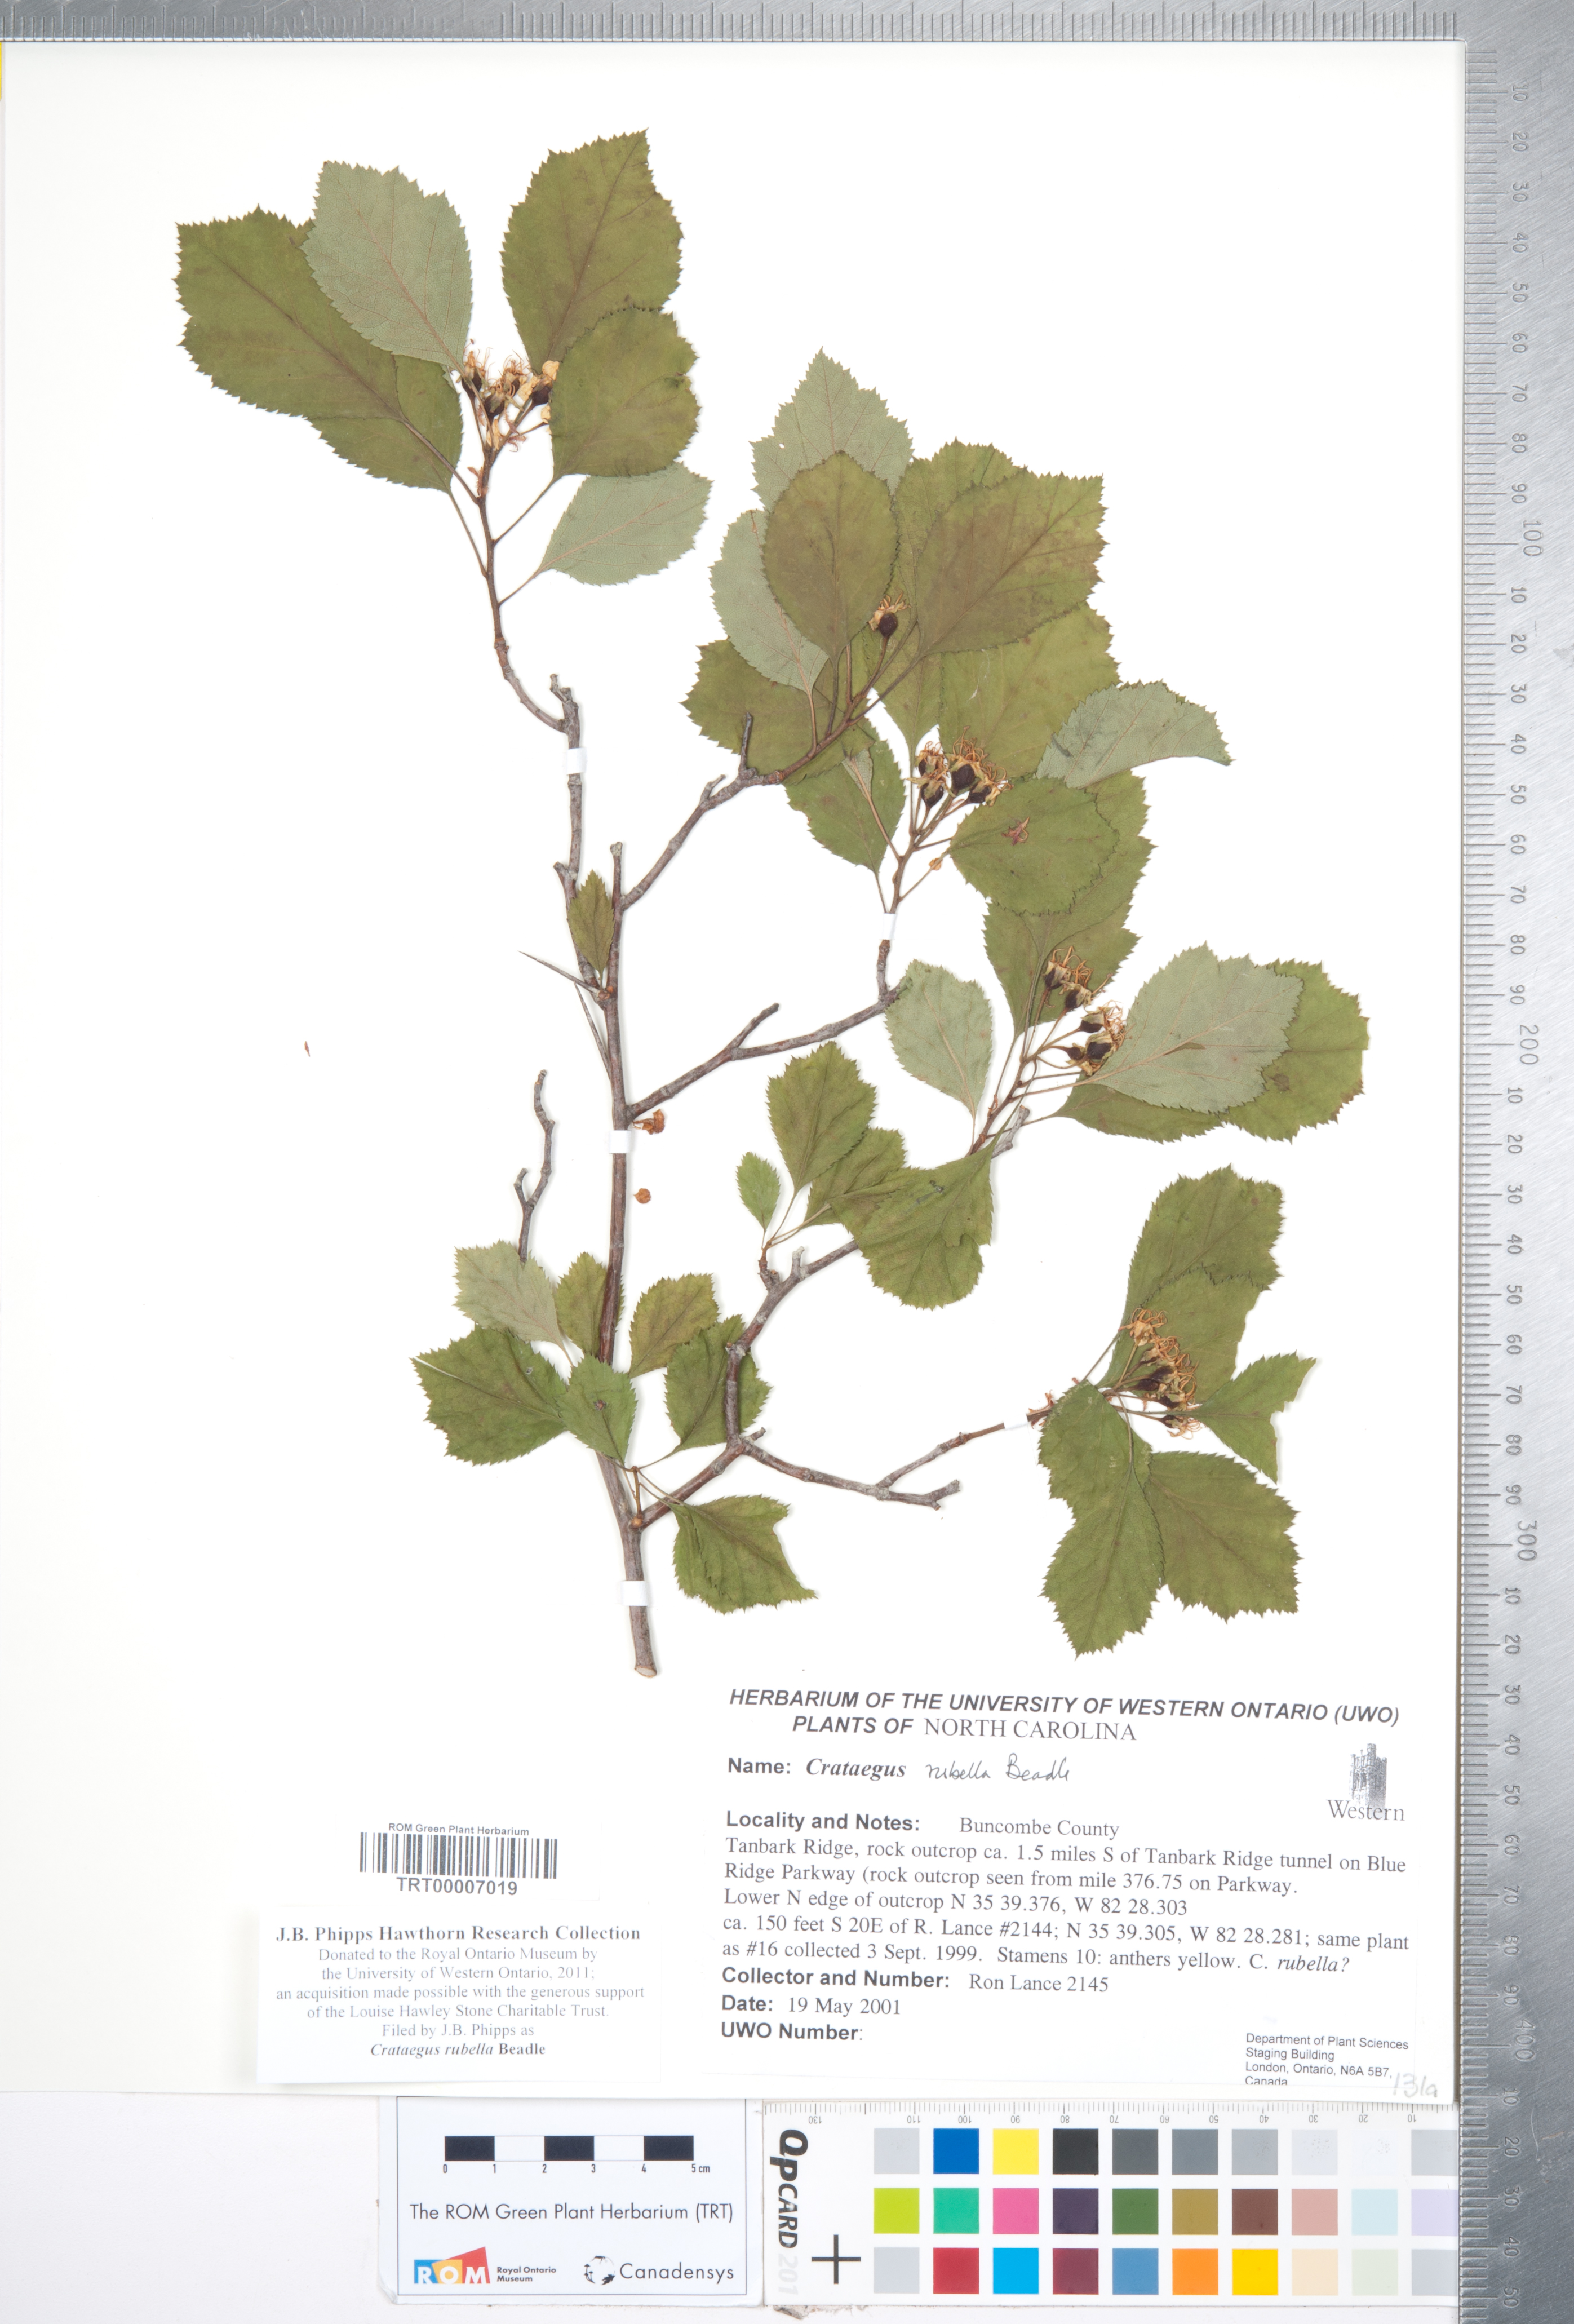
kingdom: Plantae
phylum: Tracheophyta
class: Magnoliopsida
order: Rosales
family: Rosaceae
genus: Crataegus
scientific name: Crataegus intricata
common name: Biltmore hawthorn
